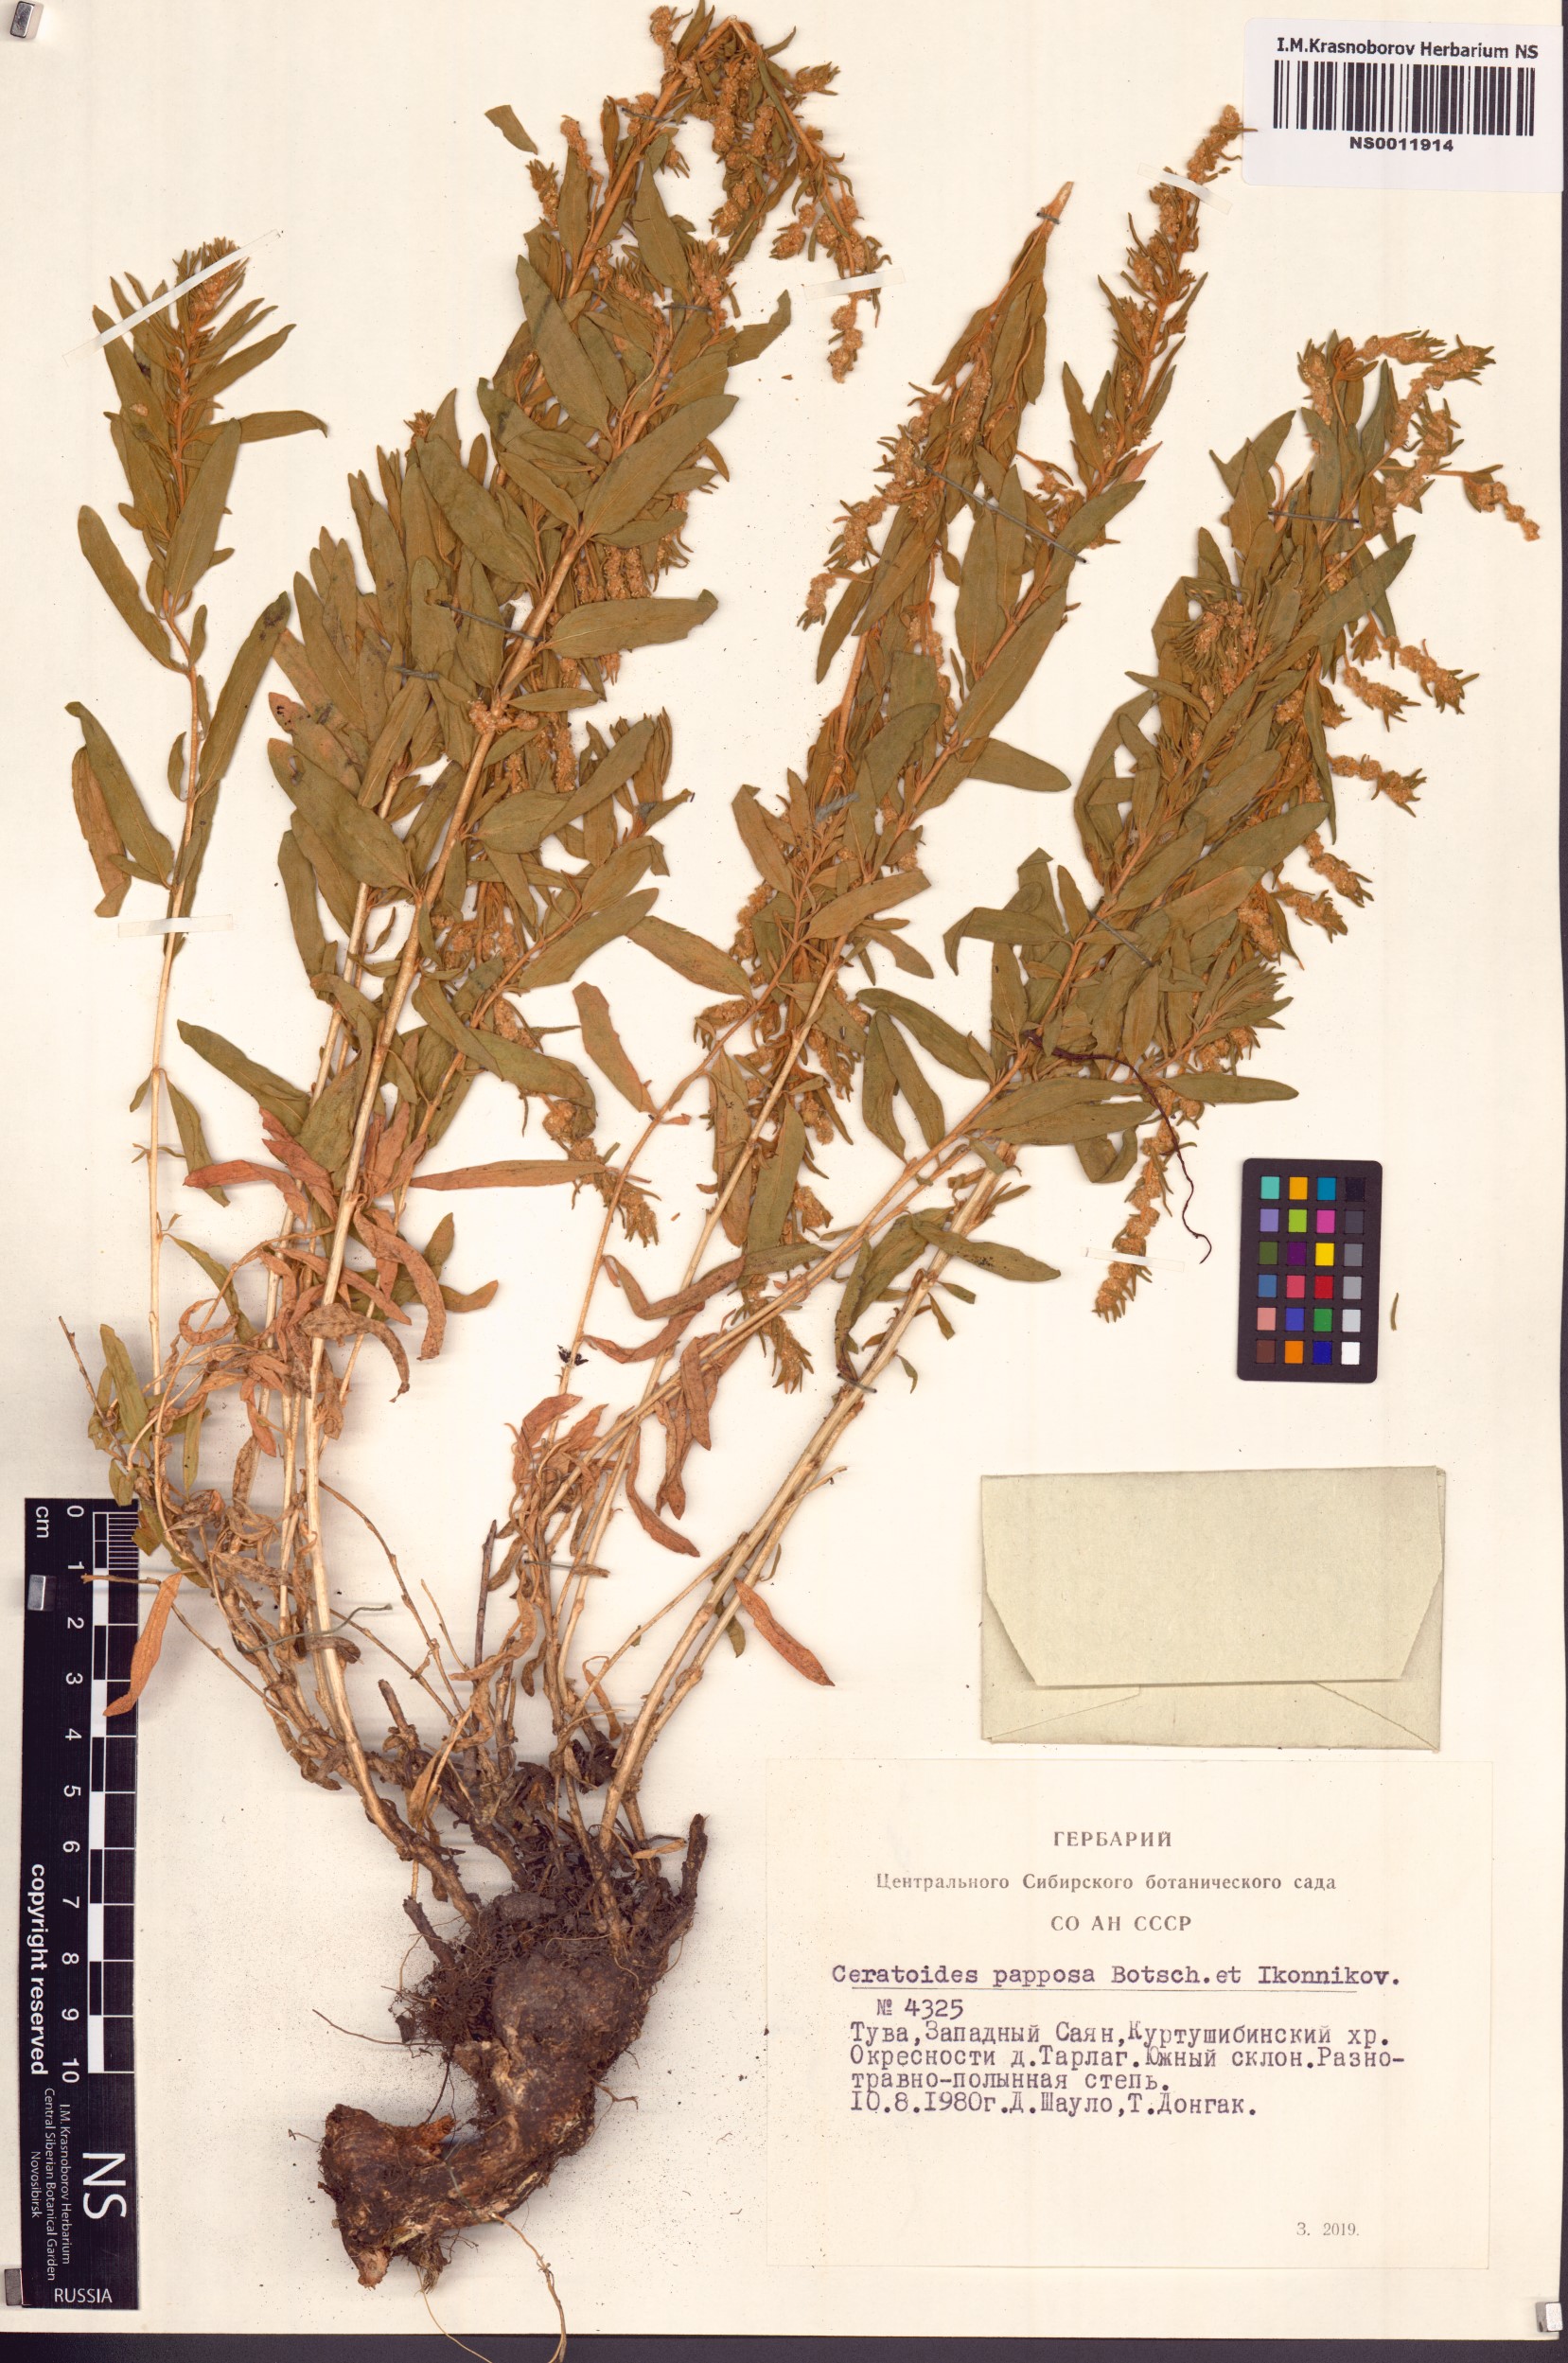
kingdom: Plantae
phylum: Tracheophyta
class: Magnoliopsida
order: Caryophyllales
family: Amaranthaceae
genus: Krascheninnikovia
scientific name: Krascheninnikovia ceratoides
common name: Pamirian winterfat
